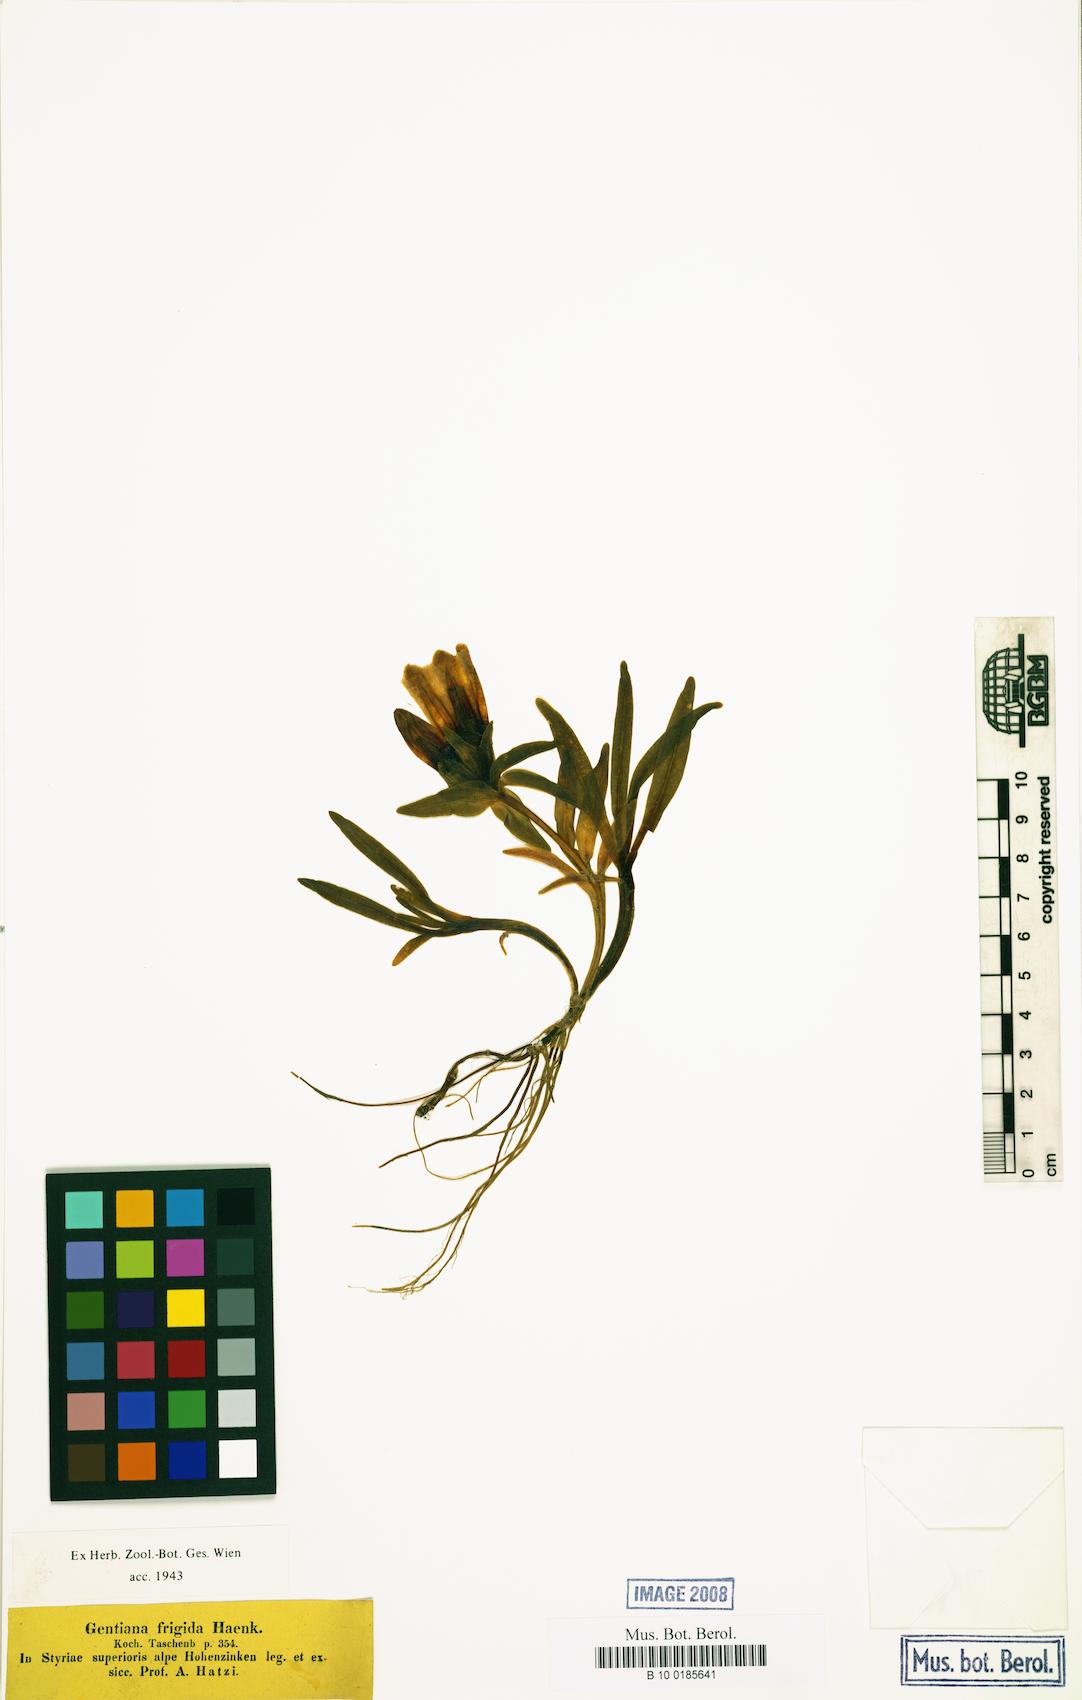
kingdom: Plantae
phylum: Tracheophyta
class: Magnoliopsida
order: Gentianales
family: Gentianaceae
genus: Gentiana
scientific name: Gentiana frigida
